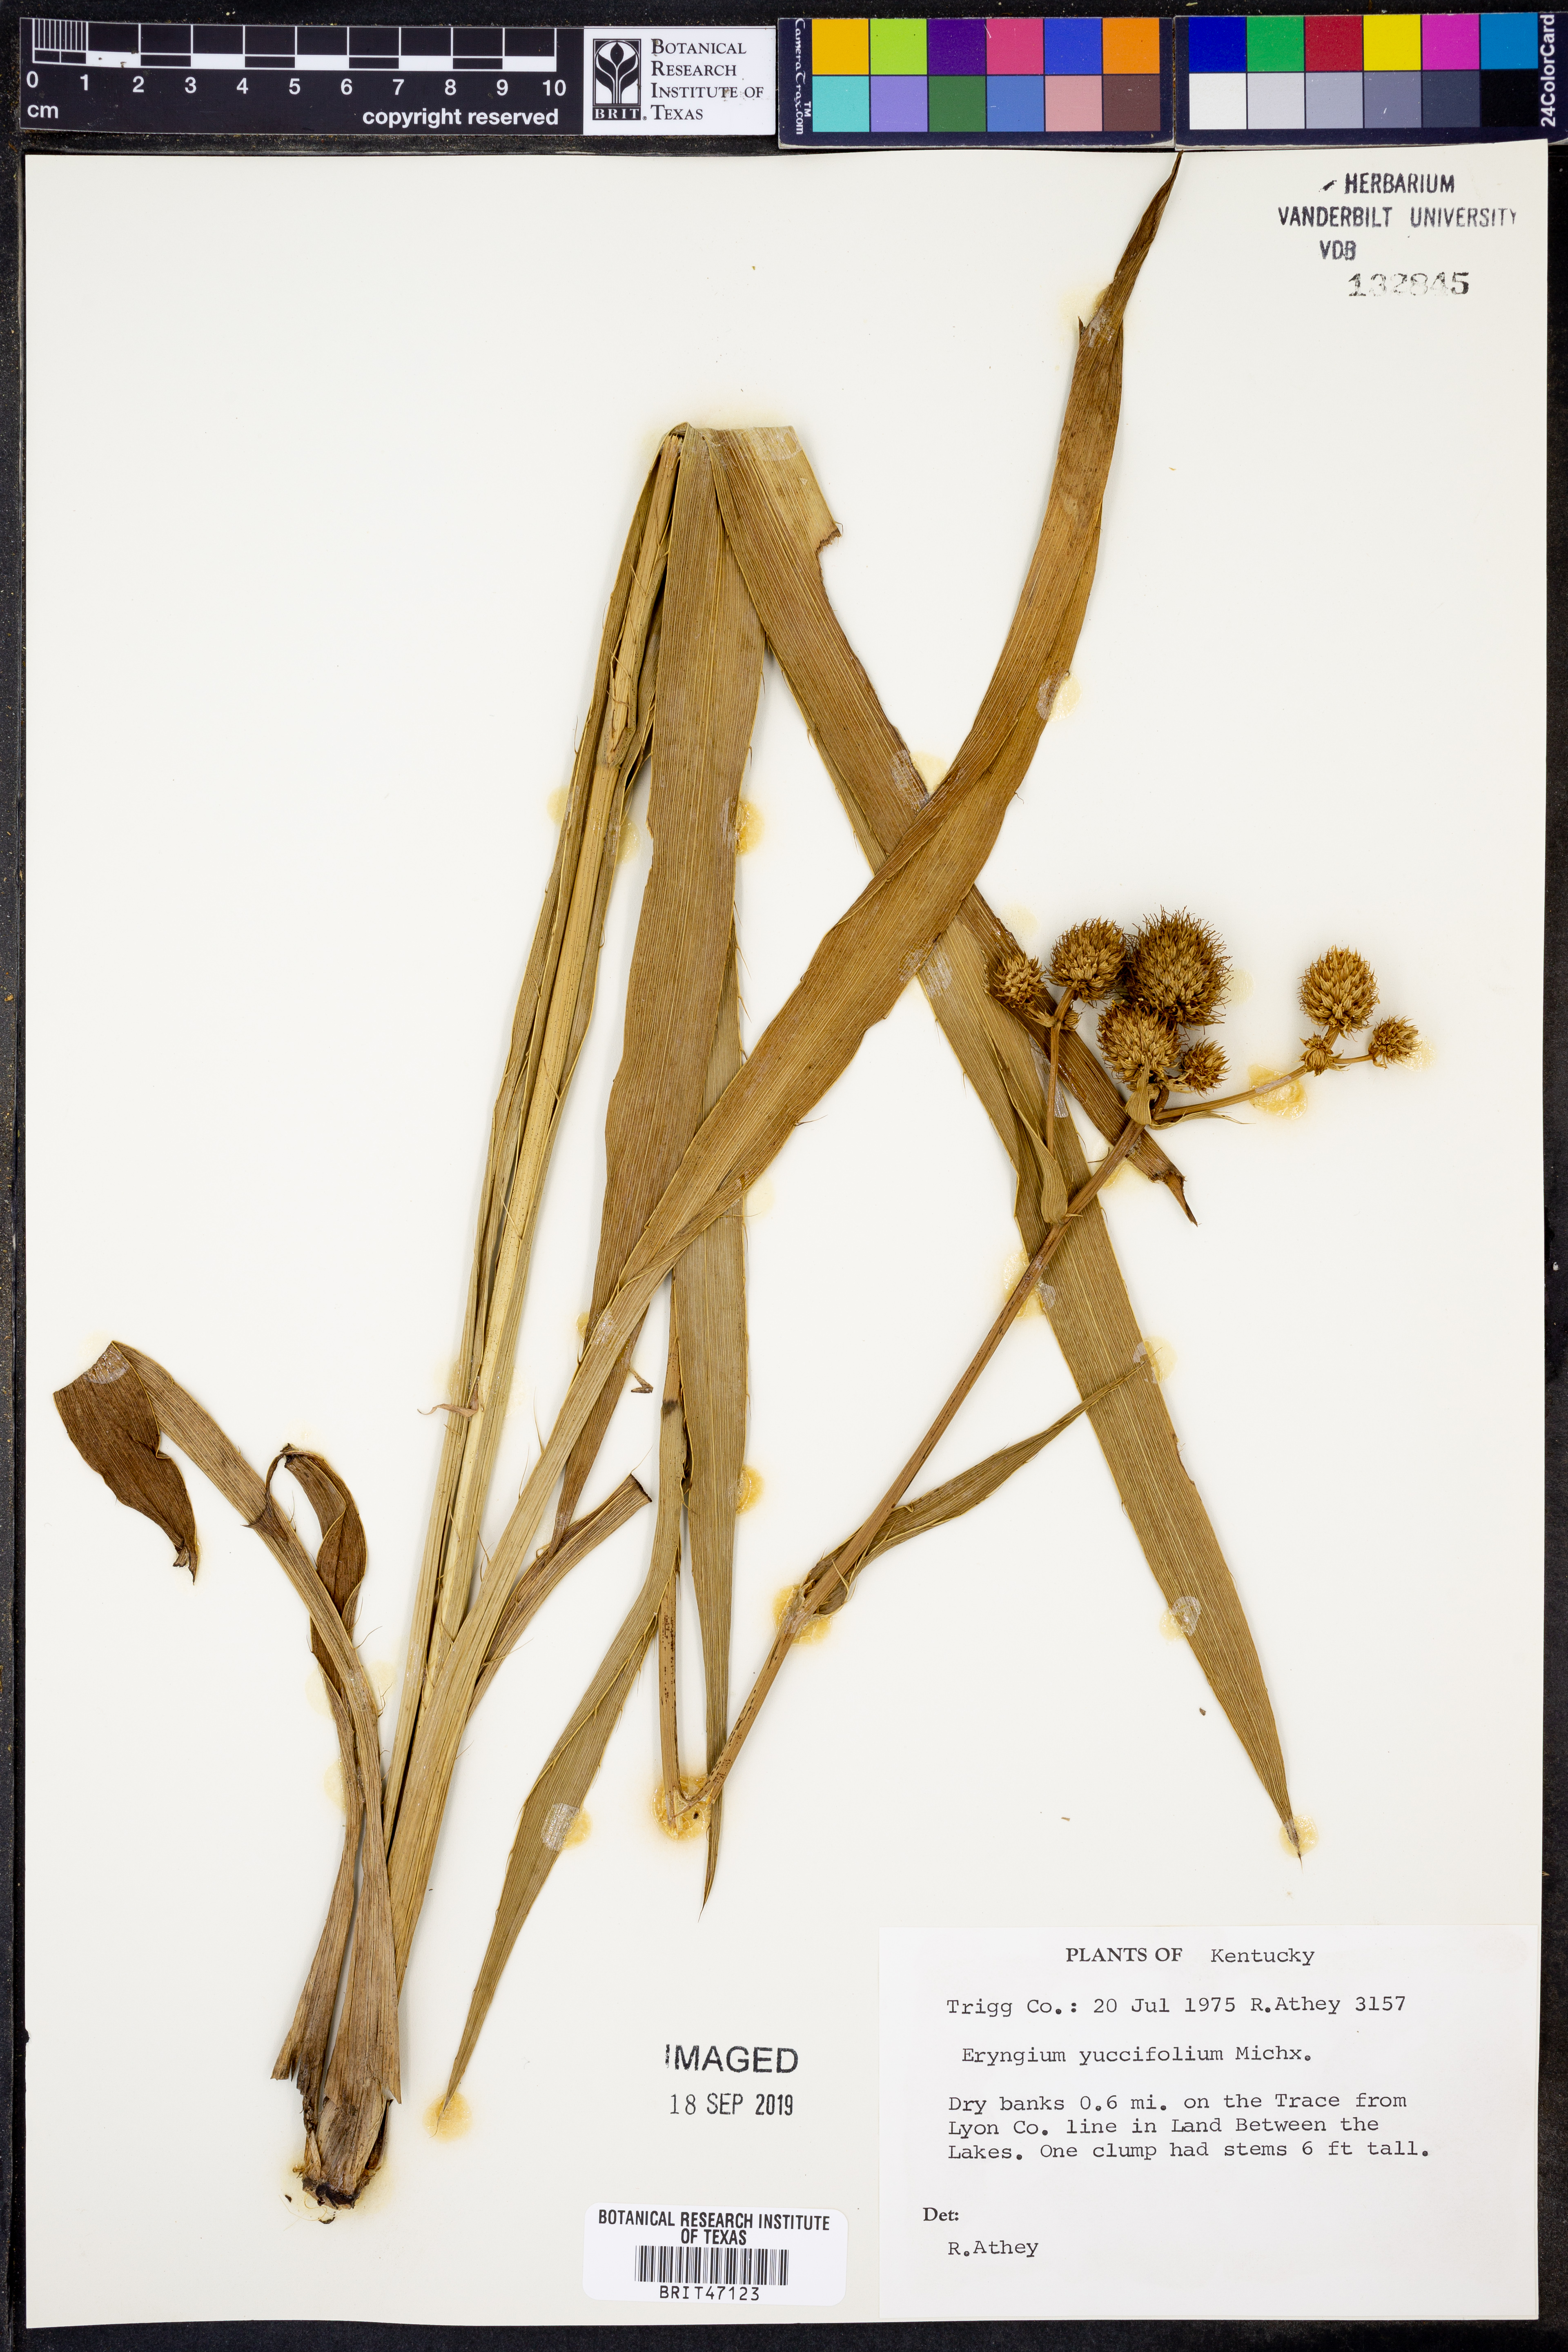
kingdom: Plantae
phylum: Tracheophyta
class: Magnoliopsida
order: Apiales
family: Apiaceae
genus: Eryngium
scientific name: Eryngium yuccifolium
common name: Button eryngo
